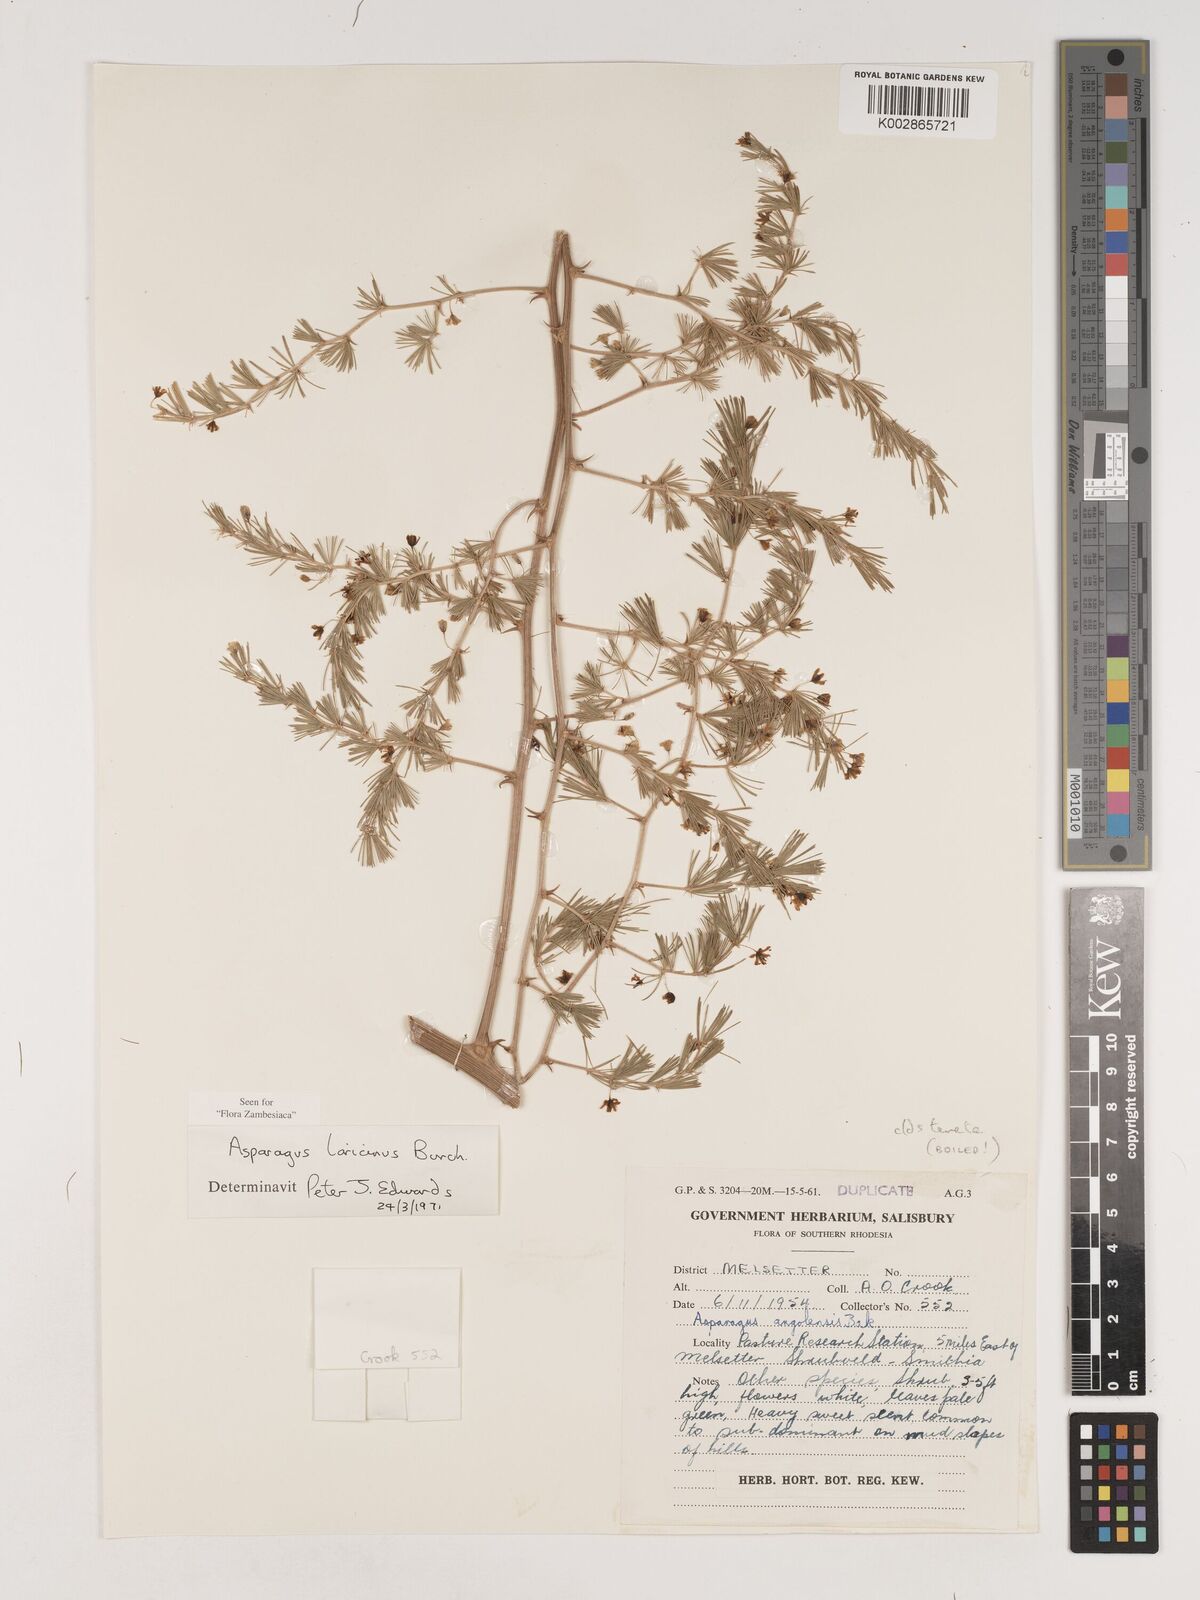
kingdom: Plantae
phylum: Tracheophyta
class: Liliopsida
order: Asparagales
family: Asparagaceae
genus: Asparagus
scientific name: Asparagus laricinus
